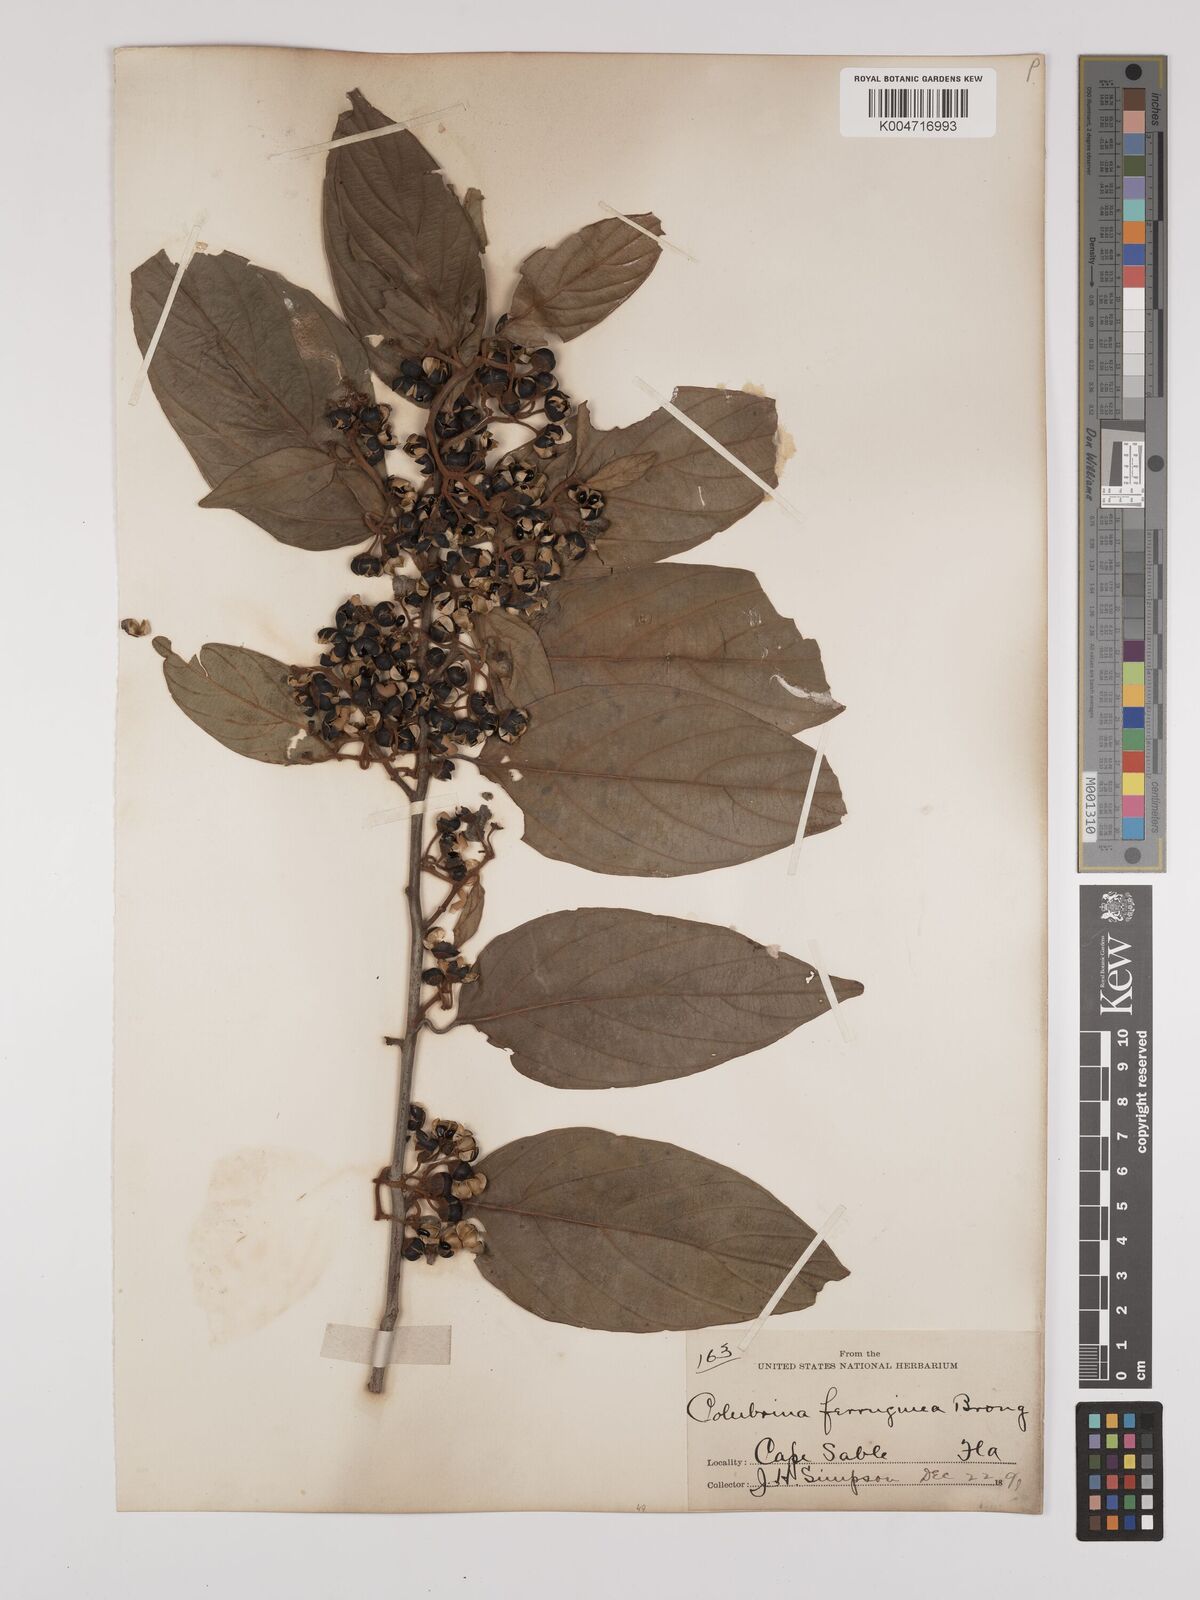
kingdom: Plantae
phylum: Tracheophyta
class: Magnoliopsida
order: Rosales
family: Rhamnaceae
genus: Colubrina
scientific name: Colubrina arborescens
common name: Wild coffee
